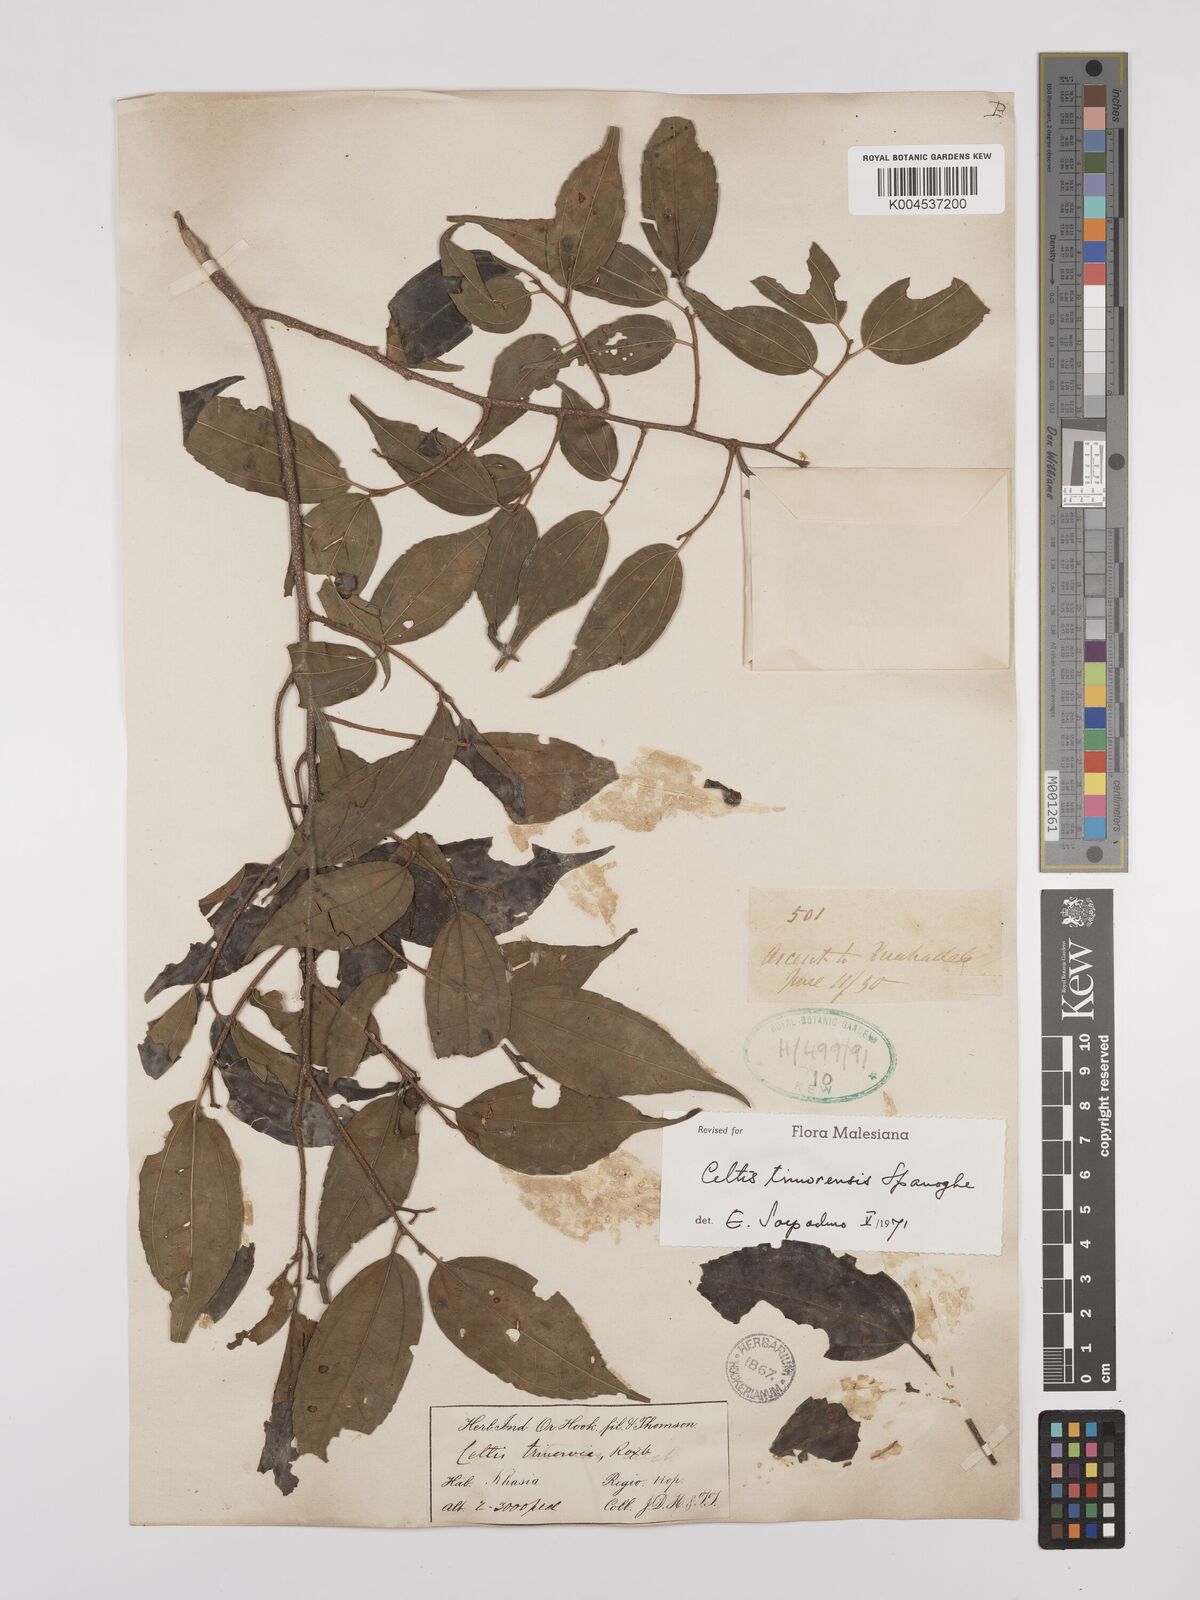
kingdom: Plantae
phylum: Tracheophyta
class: Magnoliopsida
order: Rosales
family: Cannabaceae
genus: Celtis
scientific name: Celtis timorensis
